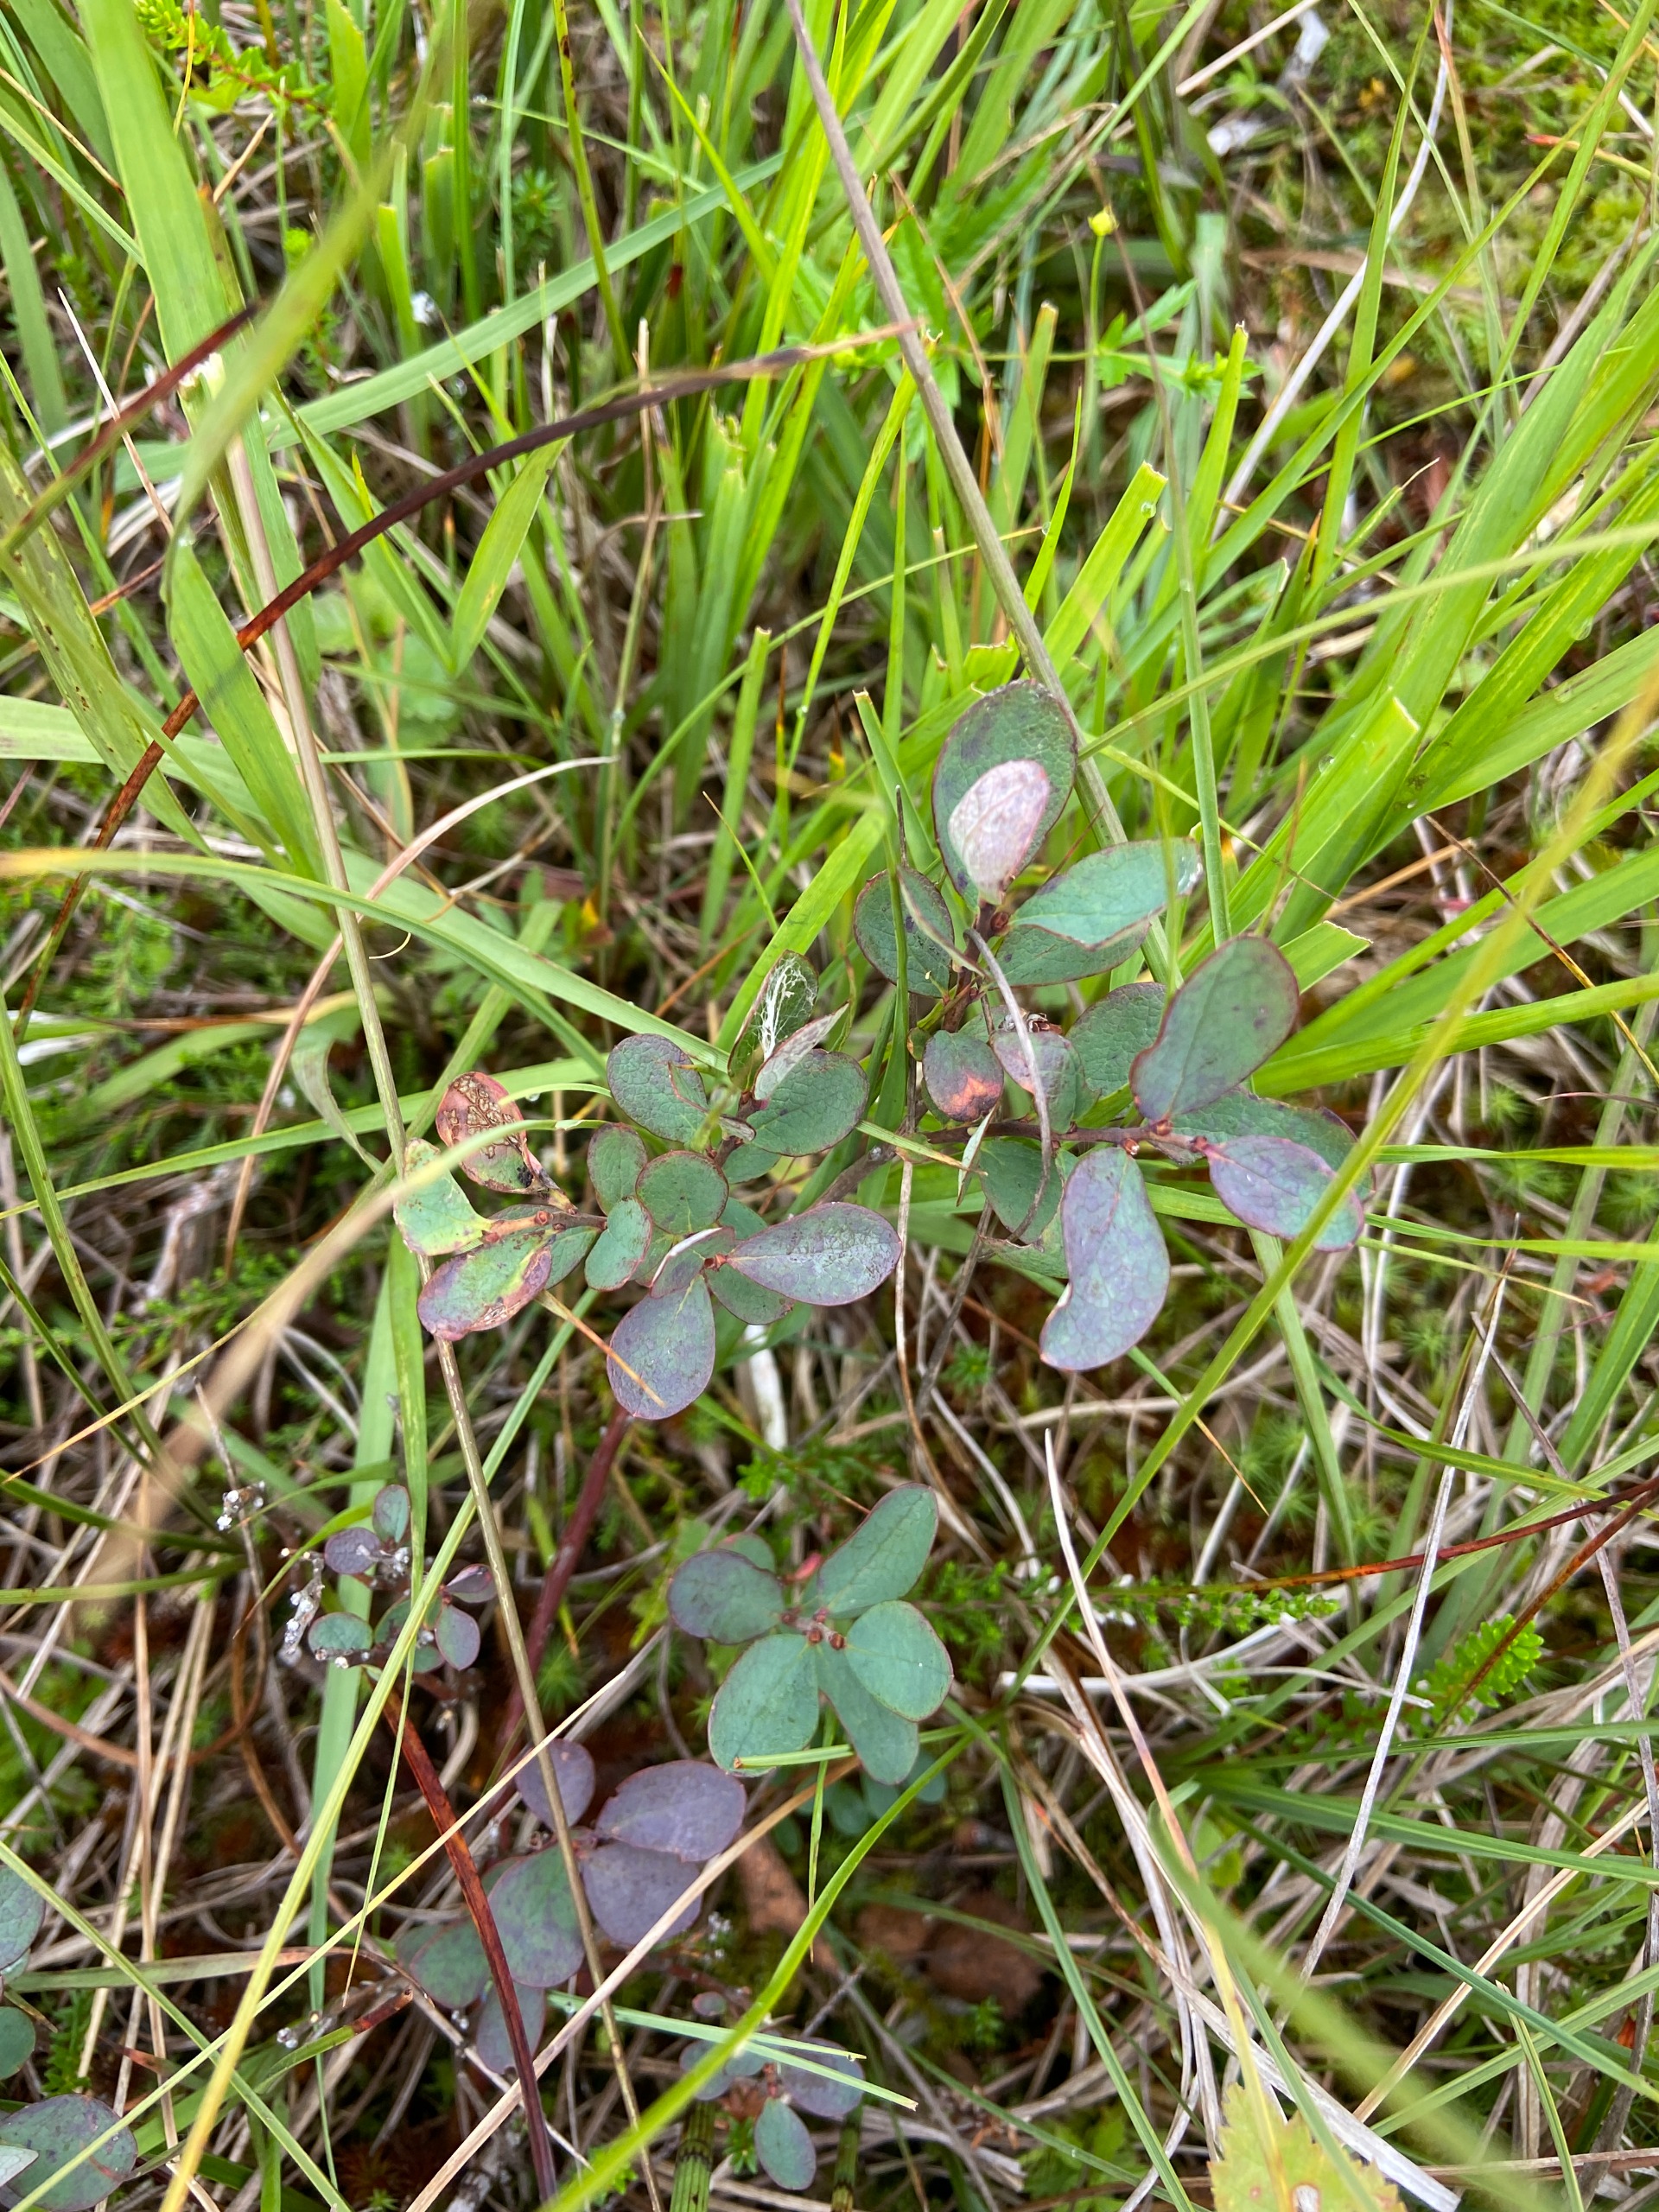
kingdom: Plantae
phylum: Tracheophyta
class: Magnoliopsida
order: Ericales
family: Ericaceae
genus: Vaccinium
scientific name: Vaccinium uliginosum
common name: Mose-bølle
